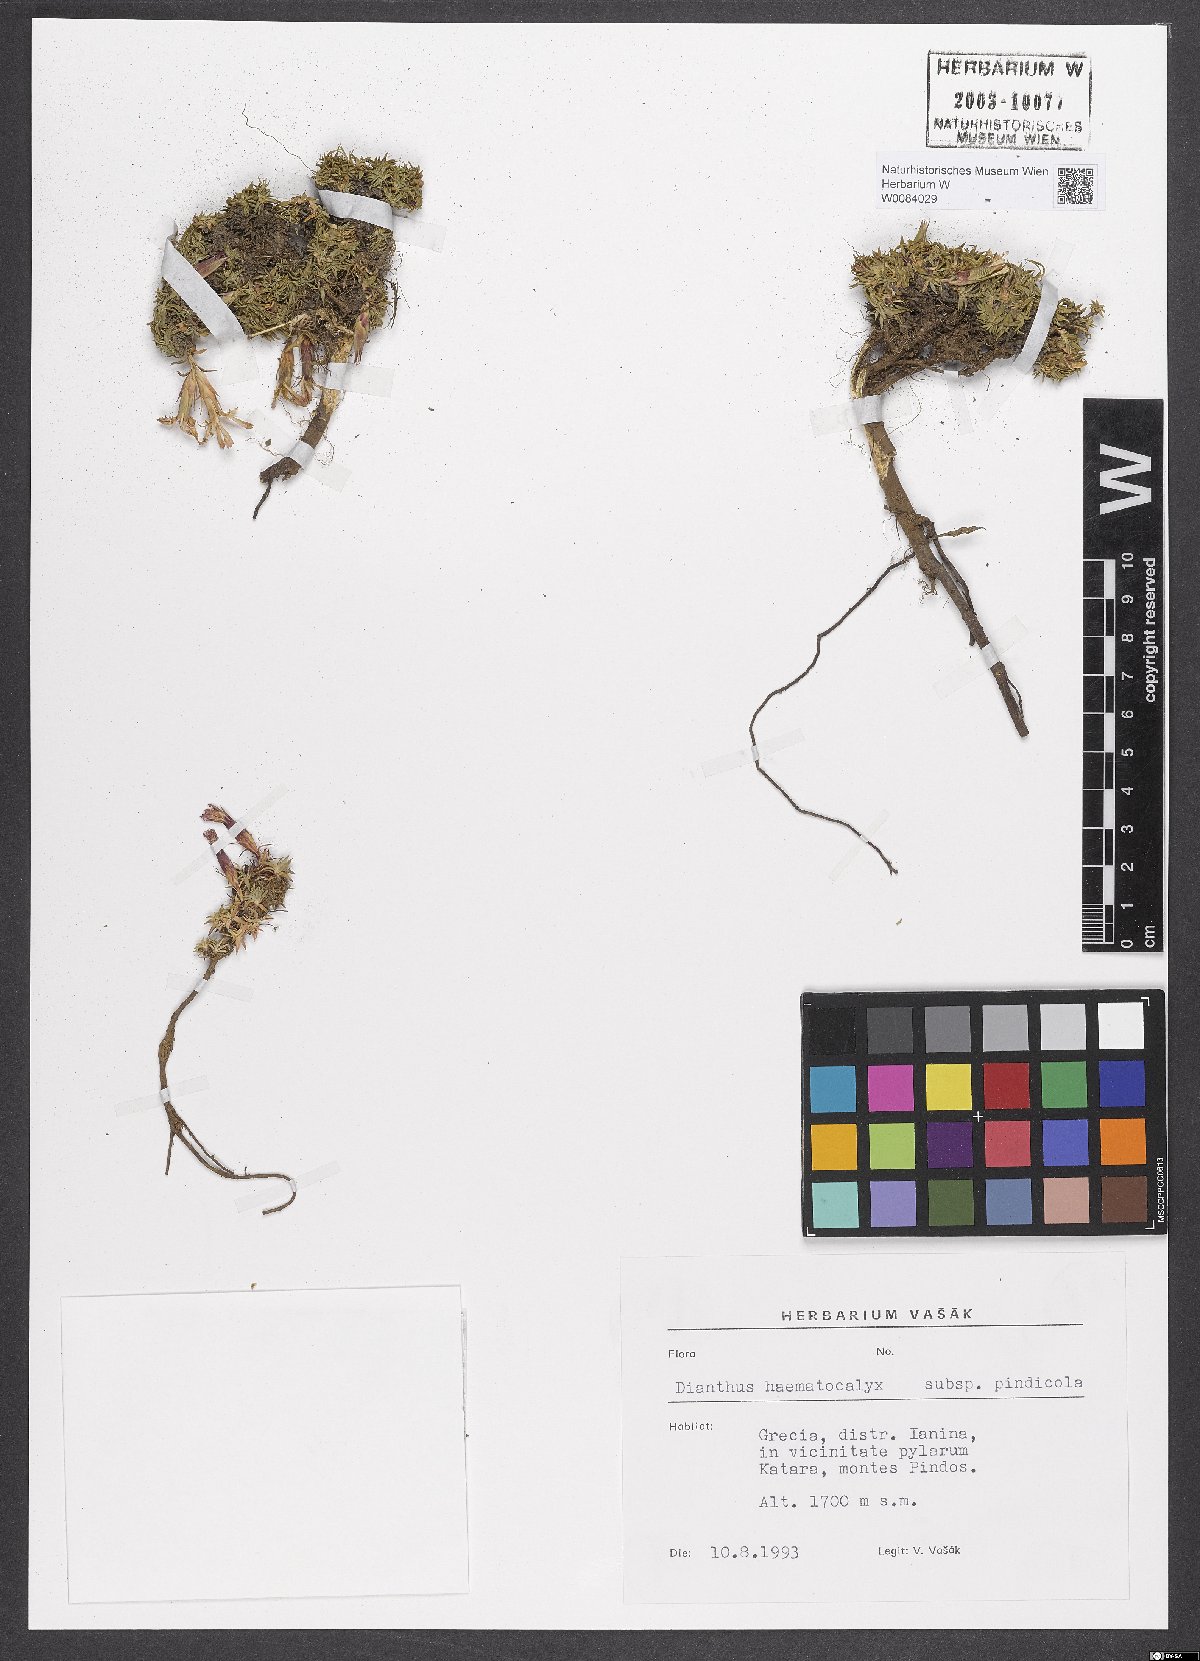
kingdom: Plantae
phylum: Tracheophyta
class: Magnoliopsida
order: Caryophyllales
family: Caryophyllaceae
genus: Dianthus
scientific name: Dianthus haematocalyx
